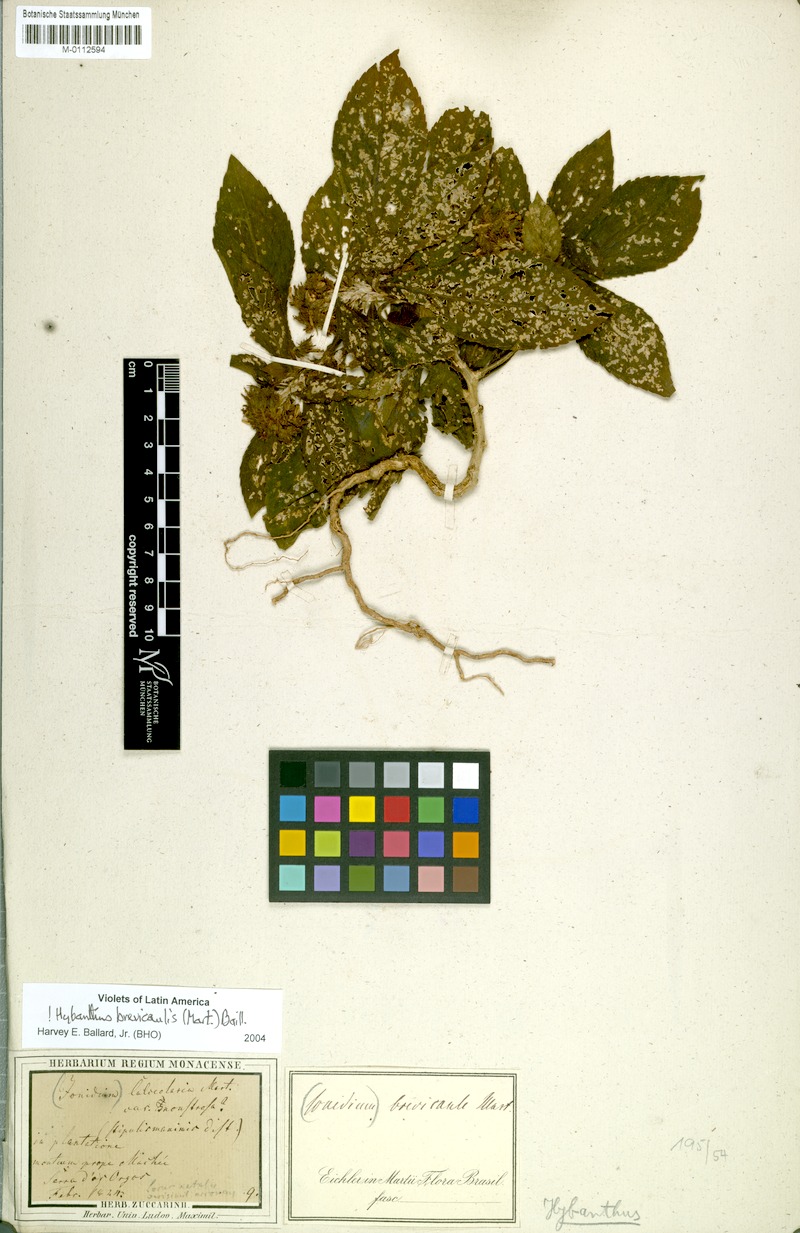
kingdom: Plantae
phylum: Tracheophyta
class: Magnoliopsida
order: Malpighiales
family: Violaceae
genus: Pombalia
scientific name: Pombalia brevicaulis
